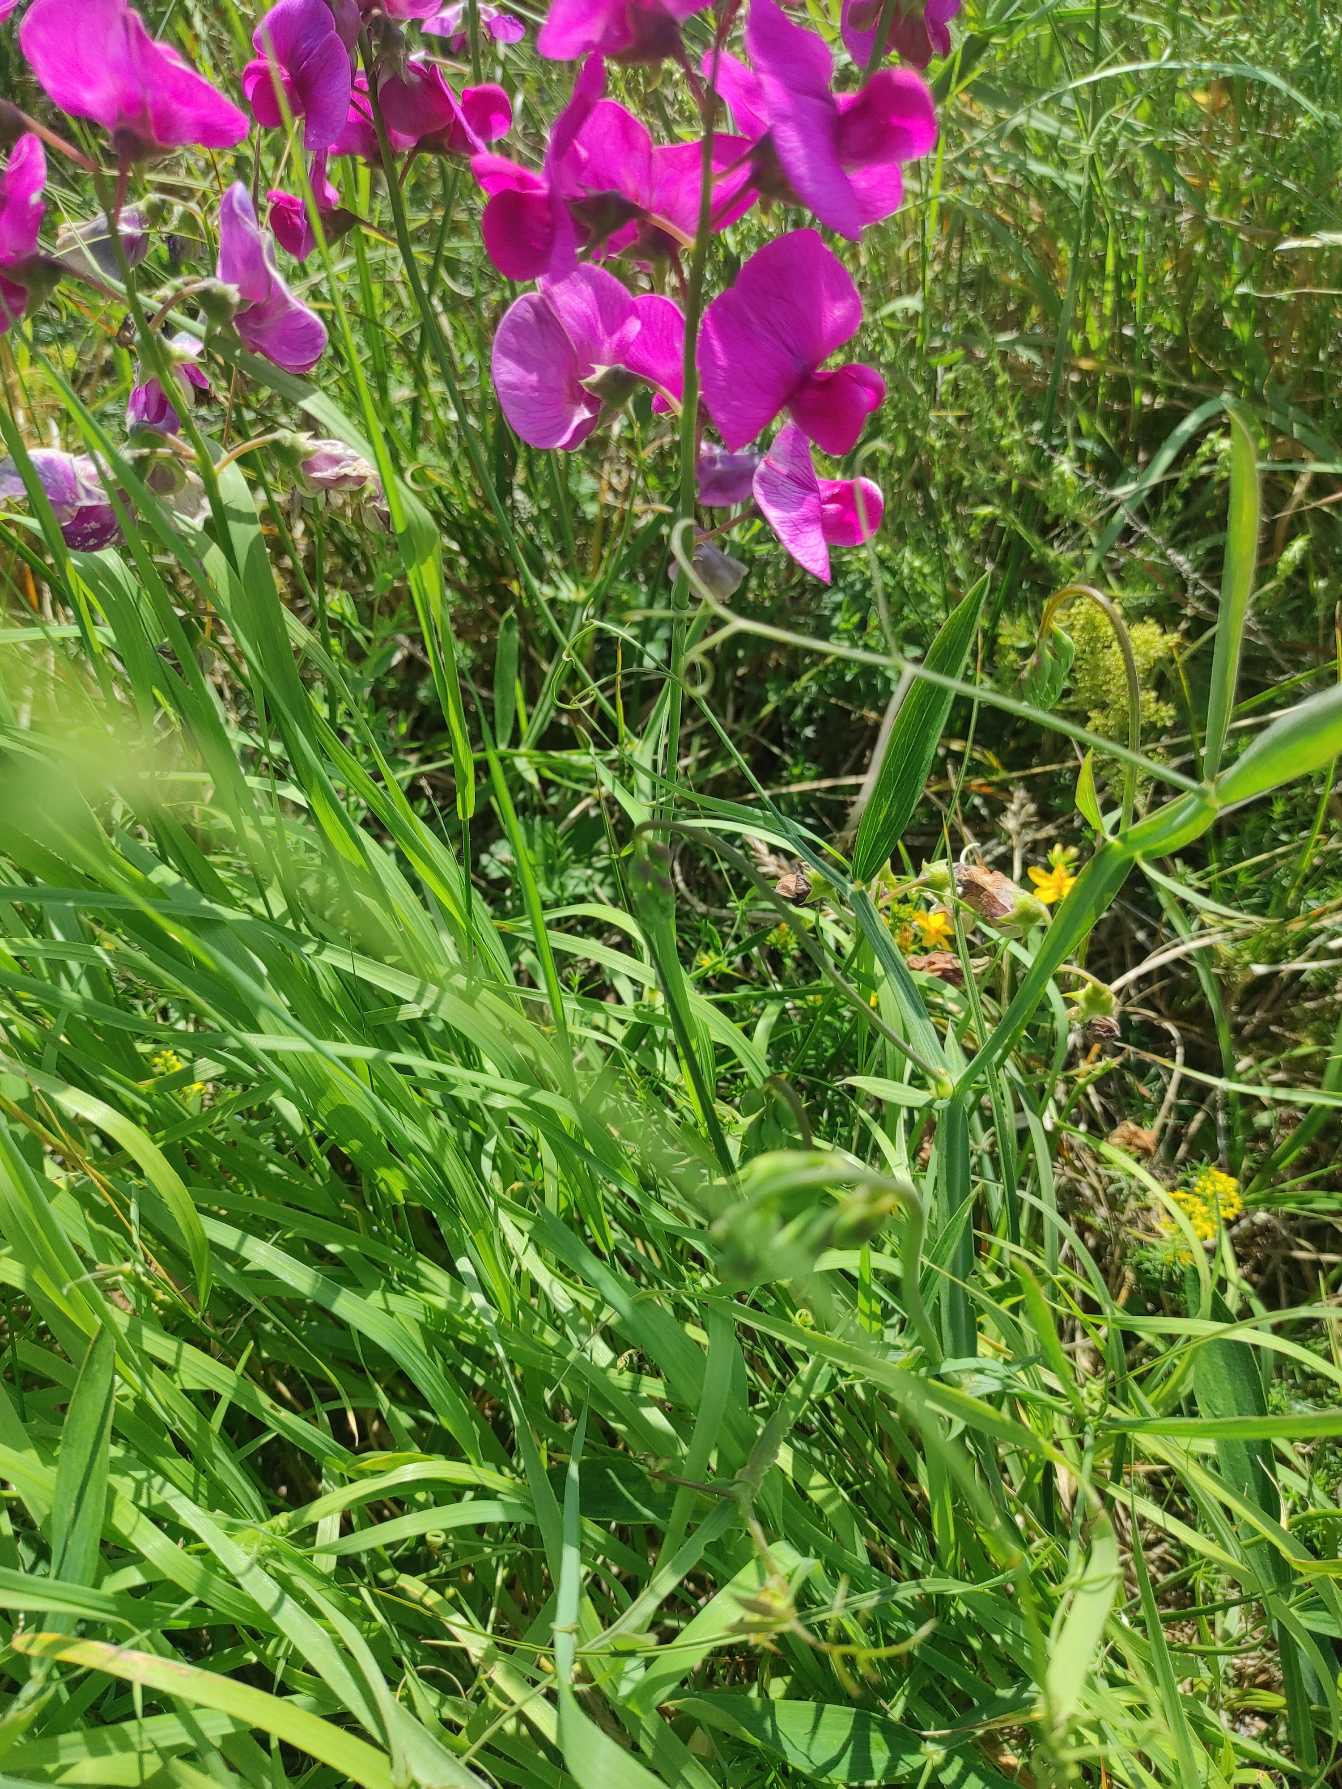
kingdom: Plantae
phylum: Tracheophyta
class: Magnoliopsida
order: Fabales
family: Fabaceae
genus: Lathyrus
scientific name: Lathyrus latifolius
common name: Flerårig ærteblomst
